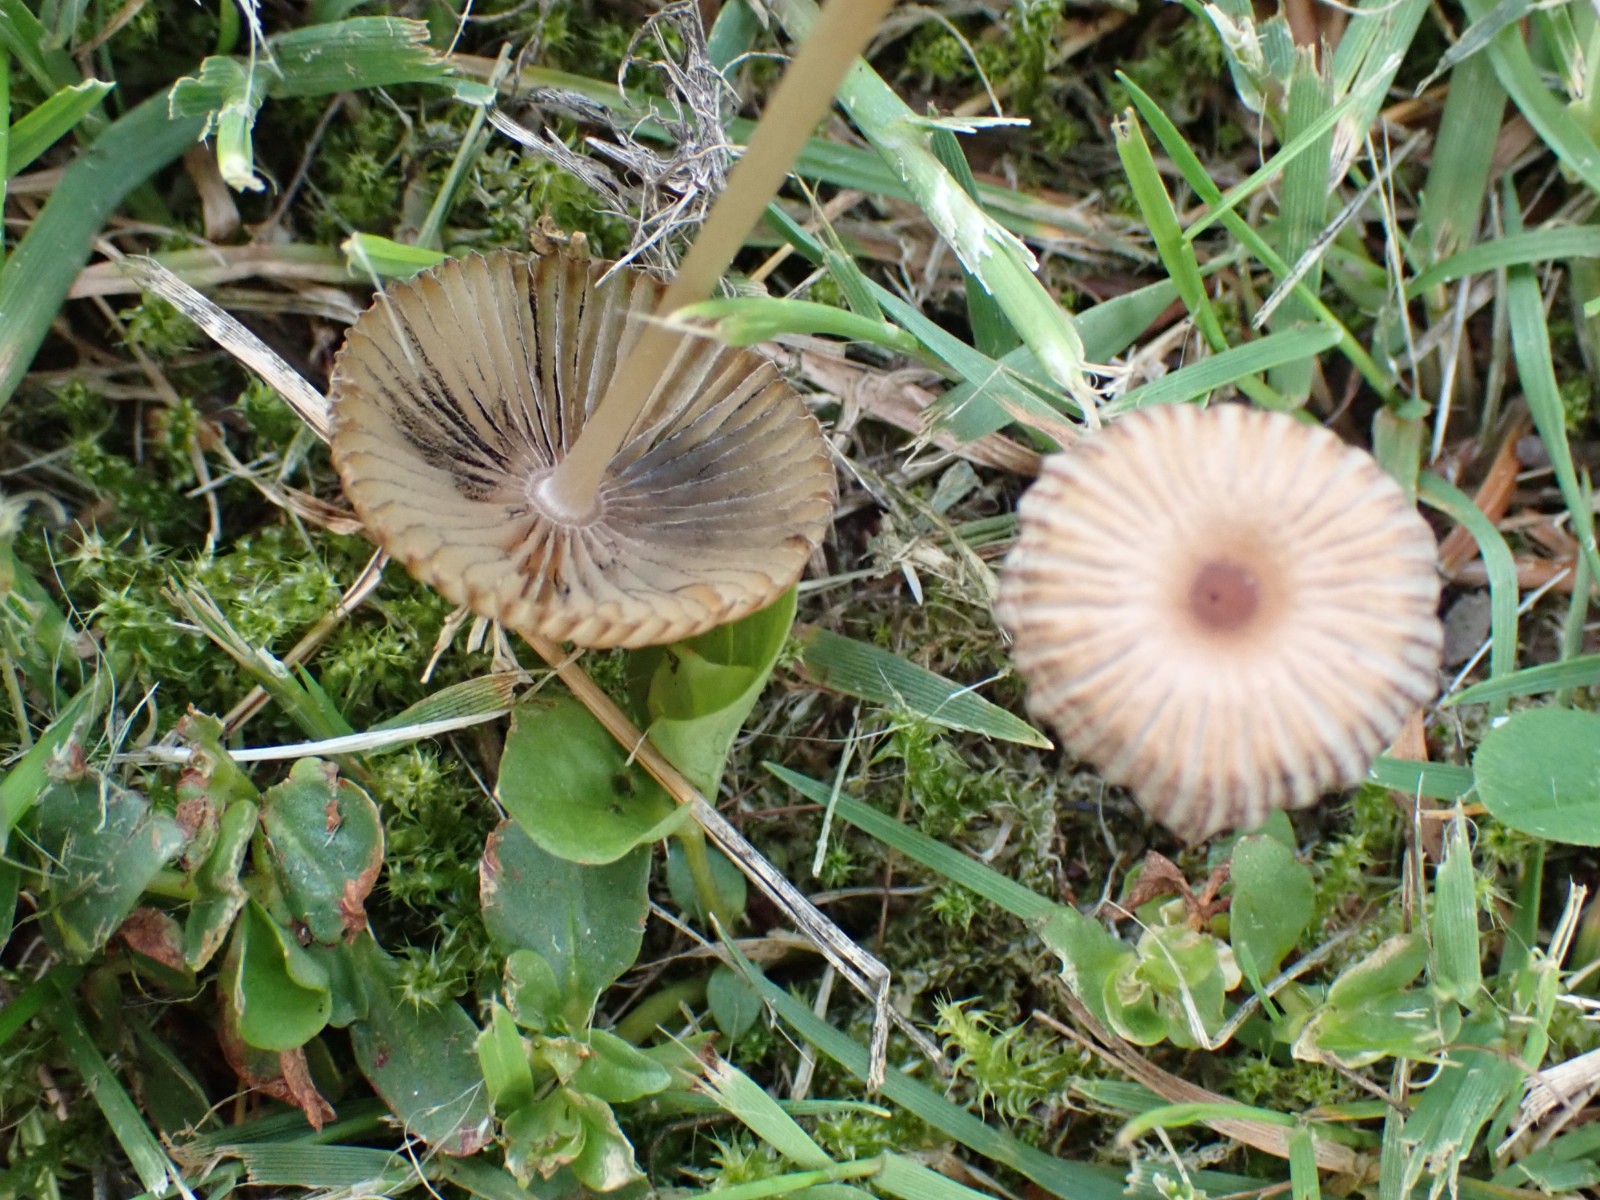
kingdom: Fungi
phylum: Basidiomycota
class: Agaricomycetes
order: Agaricales
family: Psathyrellaceae
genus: Parasola
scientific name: Parasola schroeteri
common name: bredsporet hjulhat
